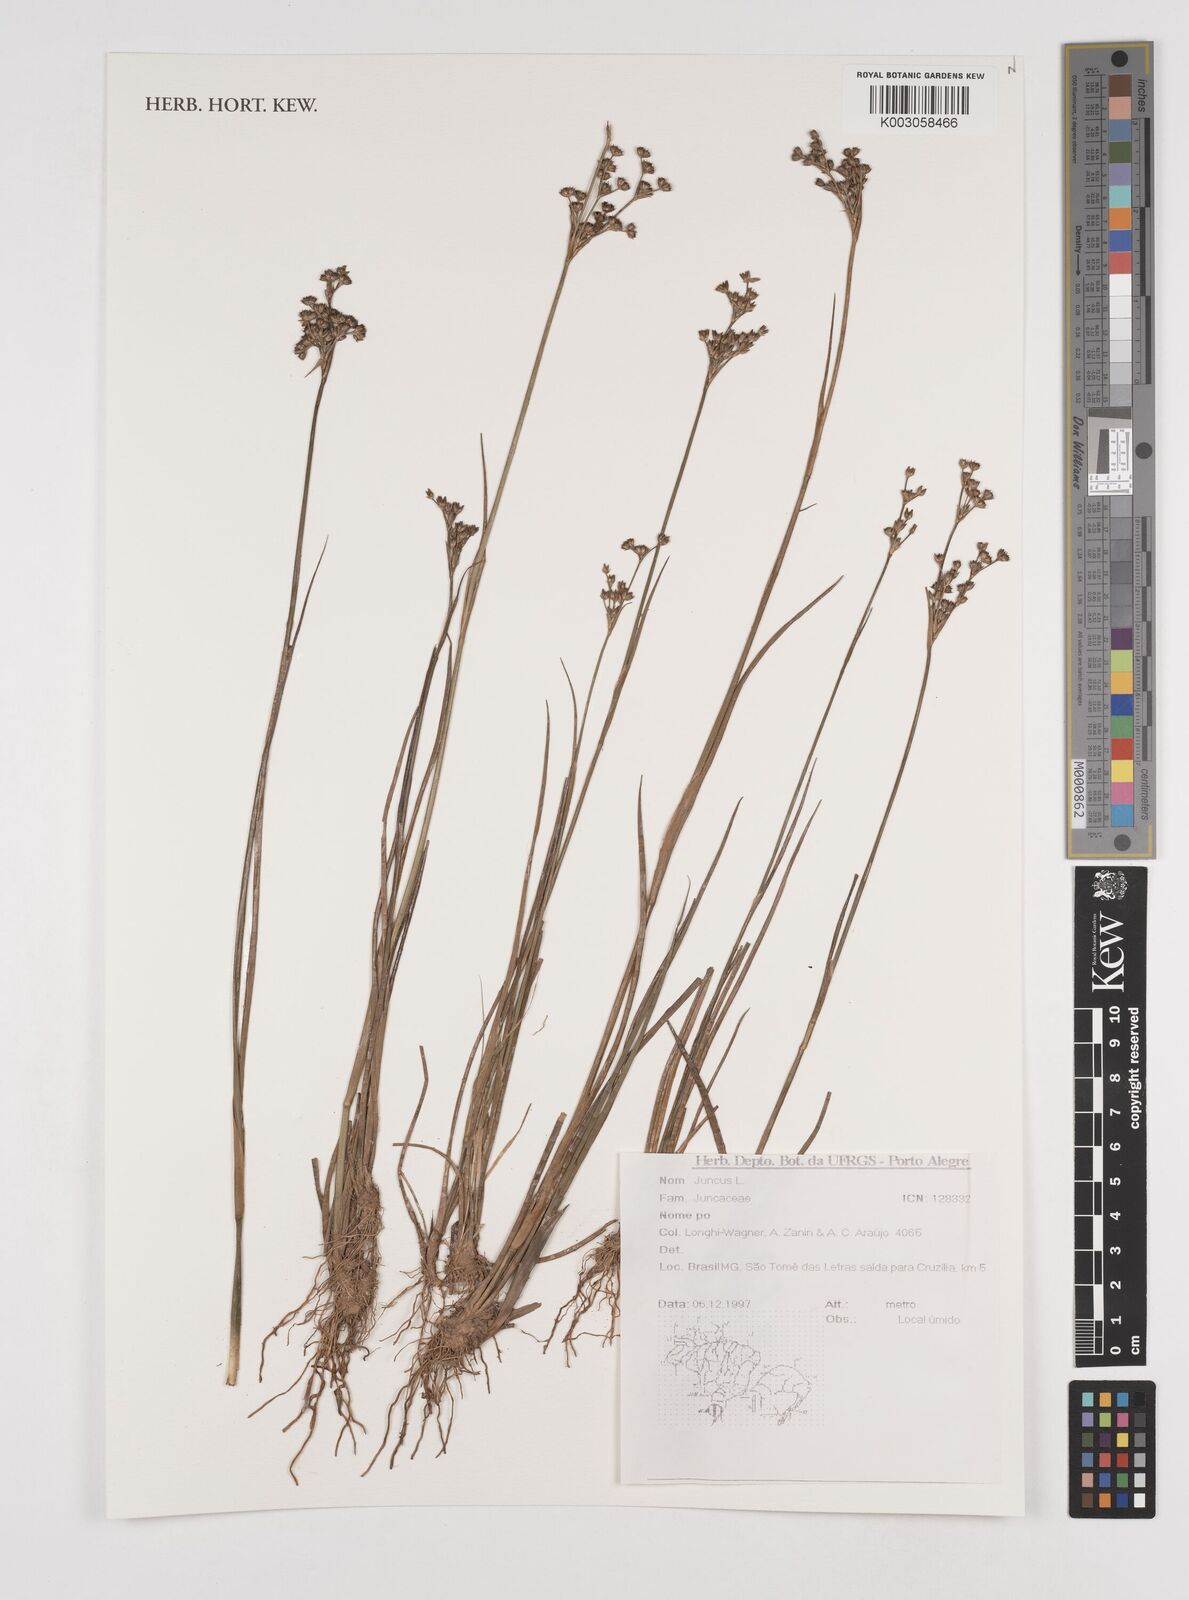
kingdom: Plantae
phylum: Tracheophyta
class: Liliopsida
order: Poales
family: Juncaceae
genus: Juncus
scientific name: Juncus
